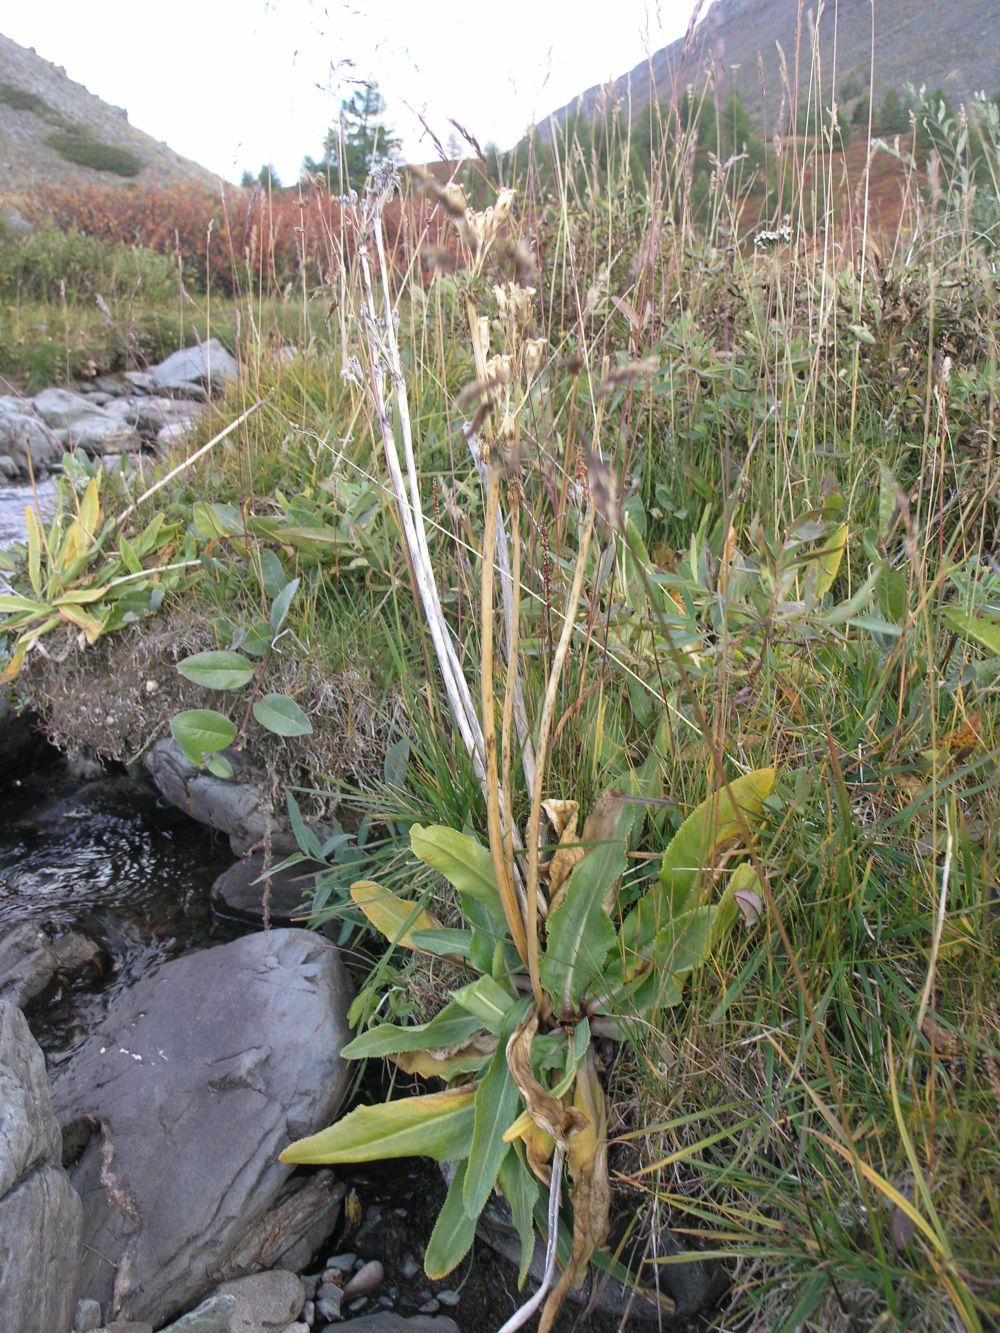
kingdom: Plantae
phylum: Tracheophyta
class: Magnoliopsida
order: Ericales
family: Primulaceae
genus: Primula
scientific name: Primula nivalis
